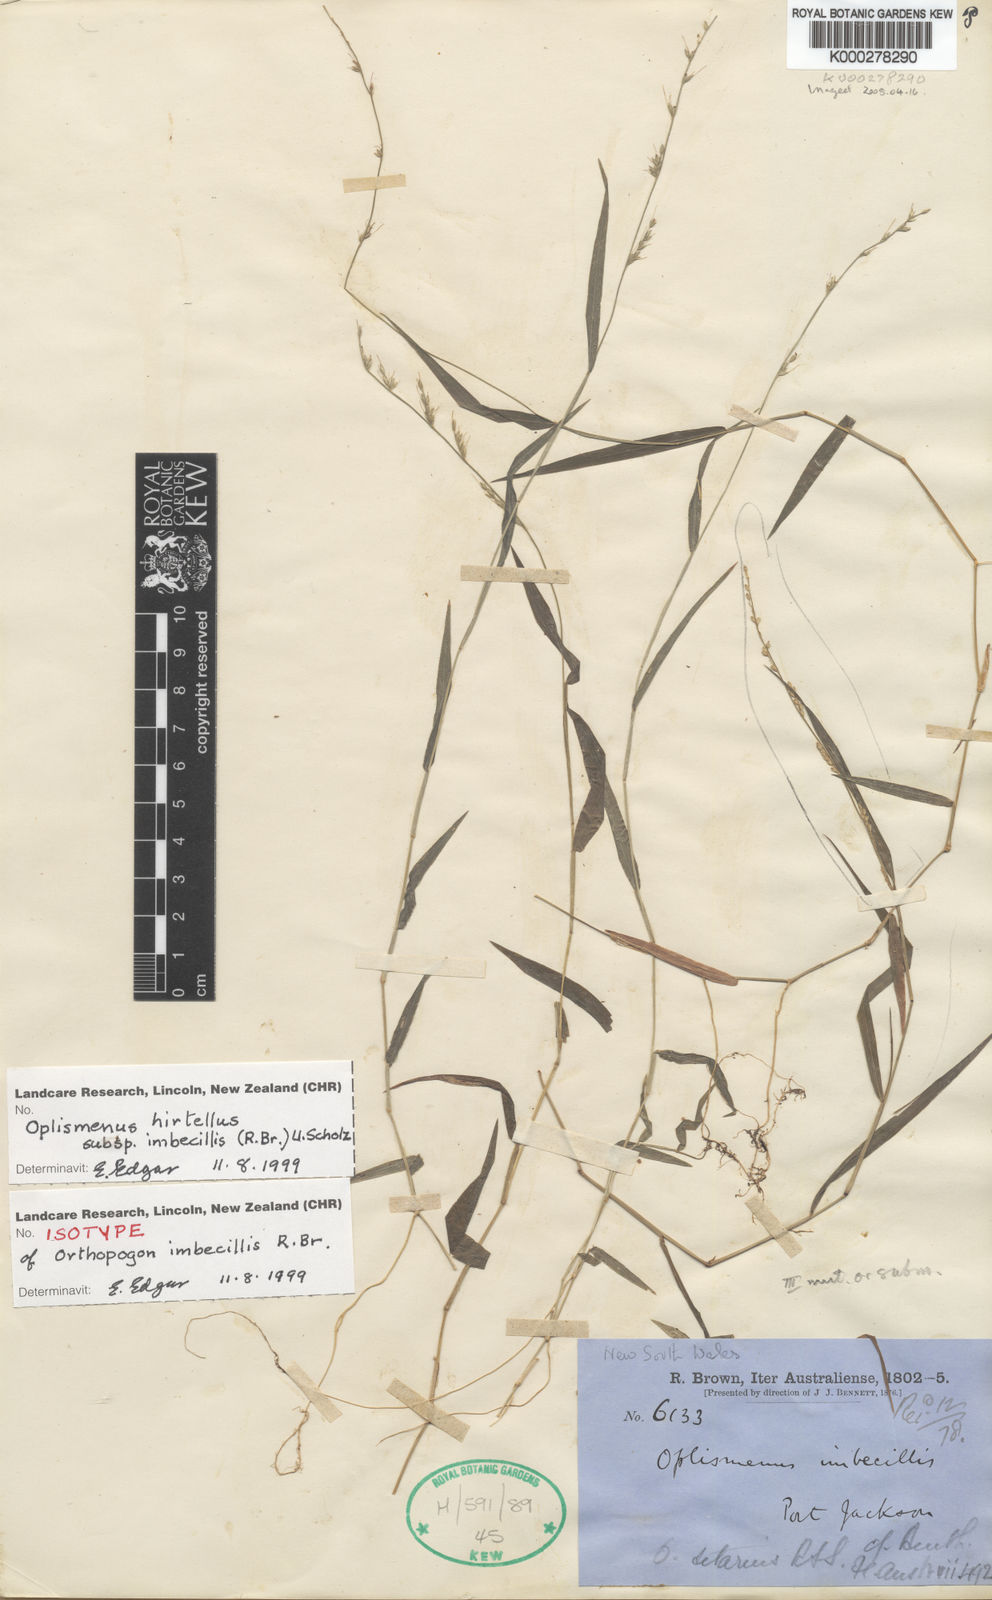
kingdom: Plantae
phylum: Tracheophyta
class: Liliopsida
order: Poales
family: Poaceae
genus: Oplismenus
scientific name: Oplismenus hirtellus
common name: Basketgrass
